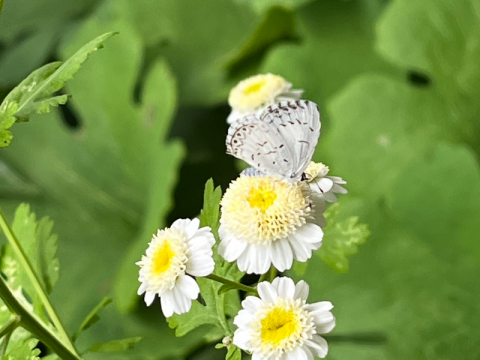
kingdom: Animalia
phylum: Arthropoda
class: Insecta
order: Lepidoptera
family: Lycaenidae
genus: Celastrina
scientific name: Celastrina lucia
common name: Northern Spring Azure
